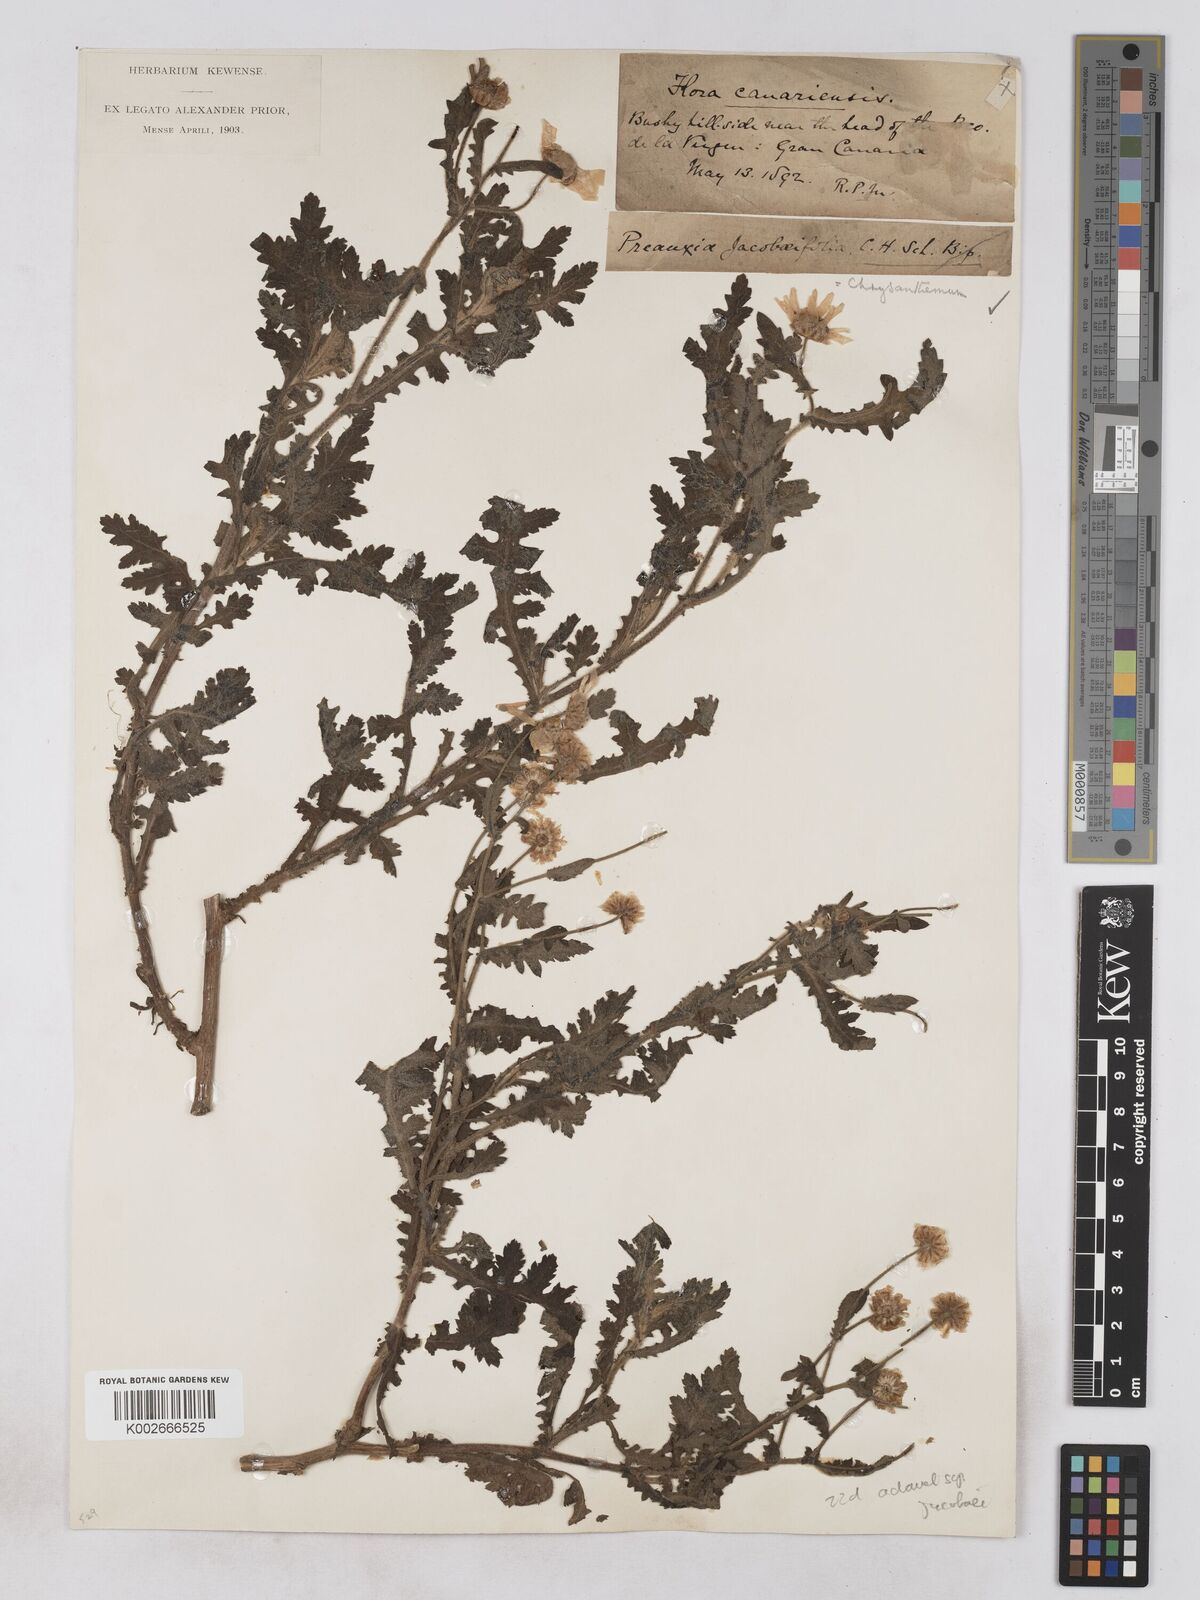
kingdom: Plantae
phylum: Tracheophyta
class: Magnoliopsida
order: Asterales
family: Asteraceae
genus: Argyranthemum
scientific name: Argyranthemum adauctum
